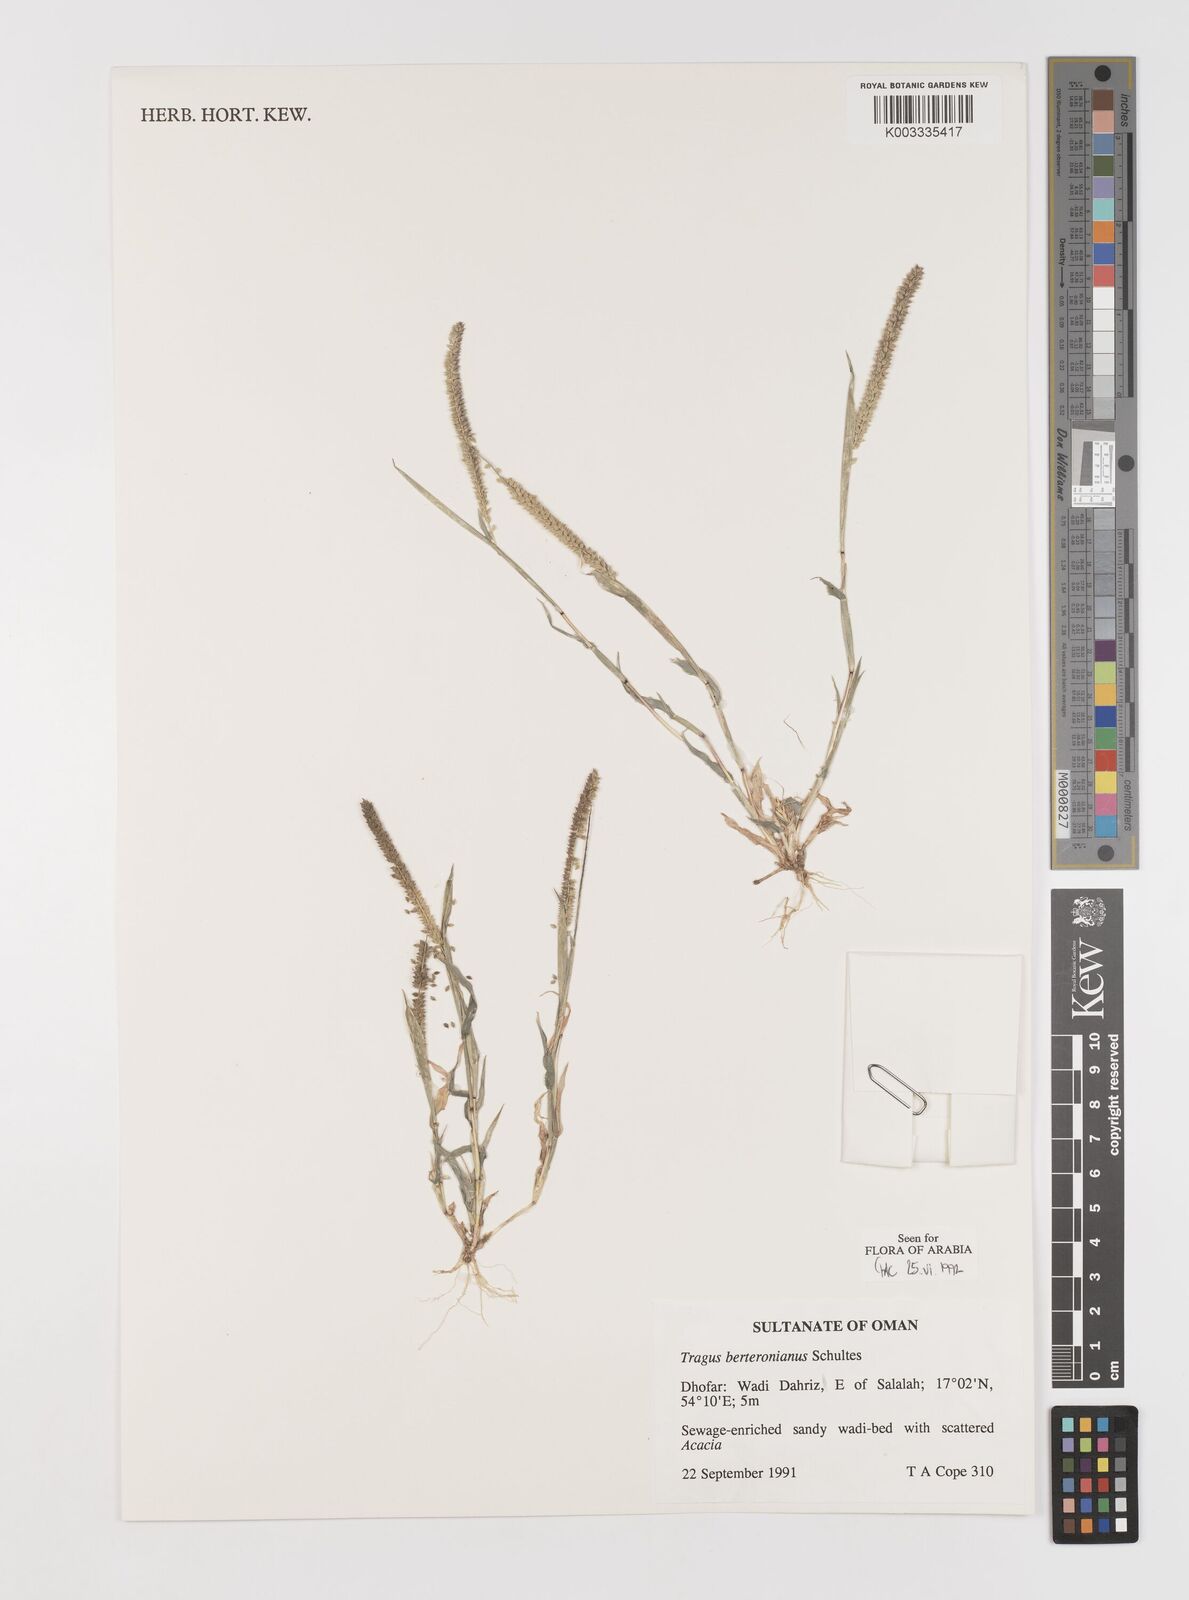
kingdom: Plantae
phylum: Tracheophyta
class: Liliopsida
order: Poales
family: Poaceae
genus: Tragus
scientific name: Tragus berteronianus
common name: African bur-grass
